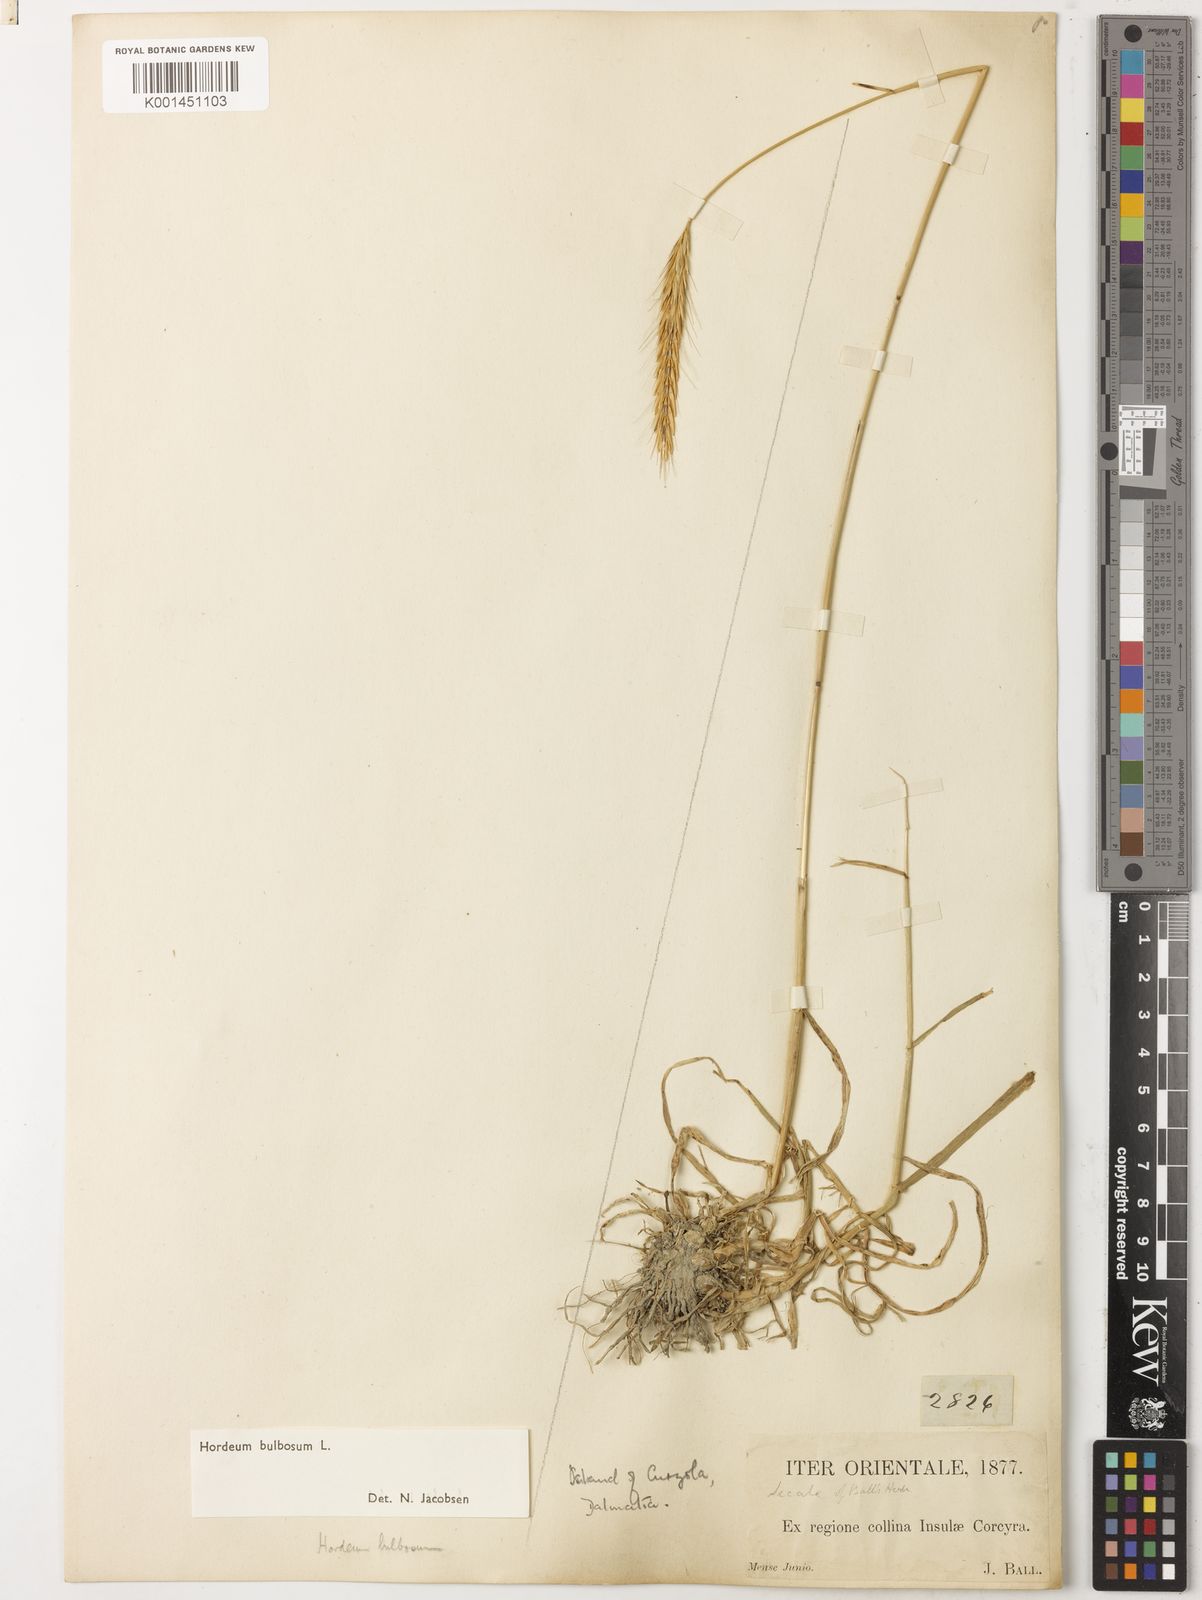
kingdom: Plantae
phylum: Tracheophyta
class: Liliopsida
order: Poales
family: Poaceae
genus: Hordeum
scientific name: Hordeum bulbosum
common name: Bulbous barley
